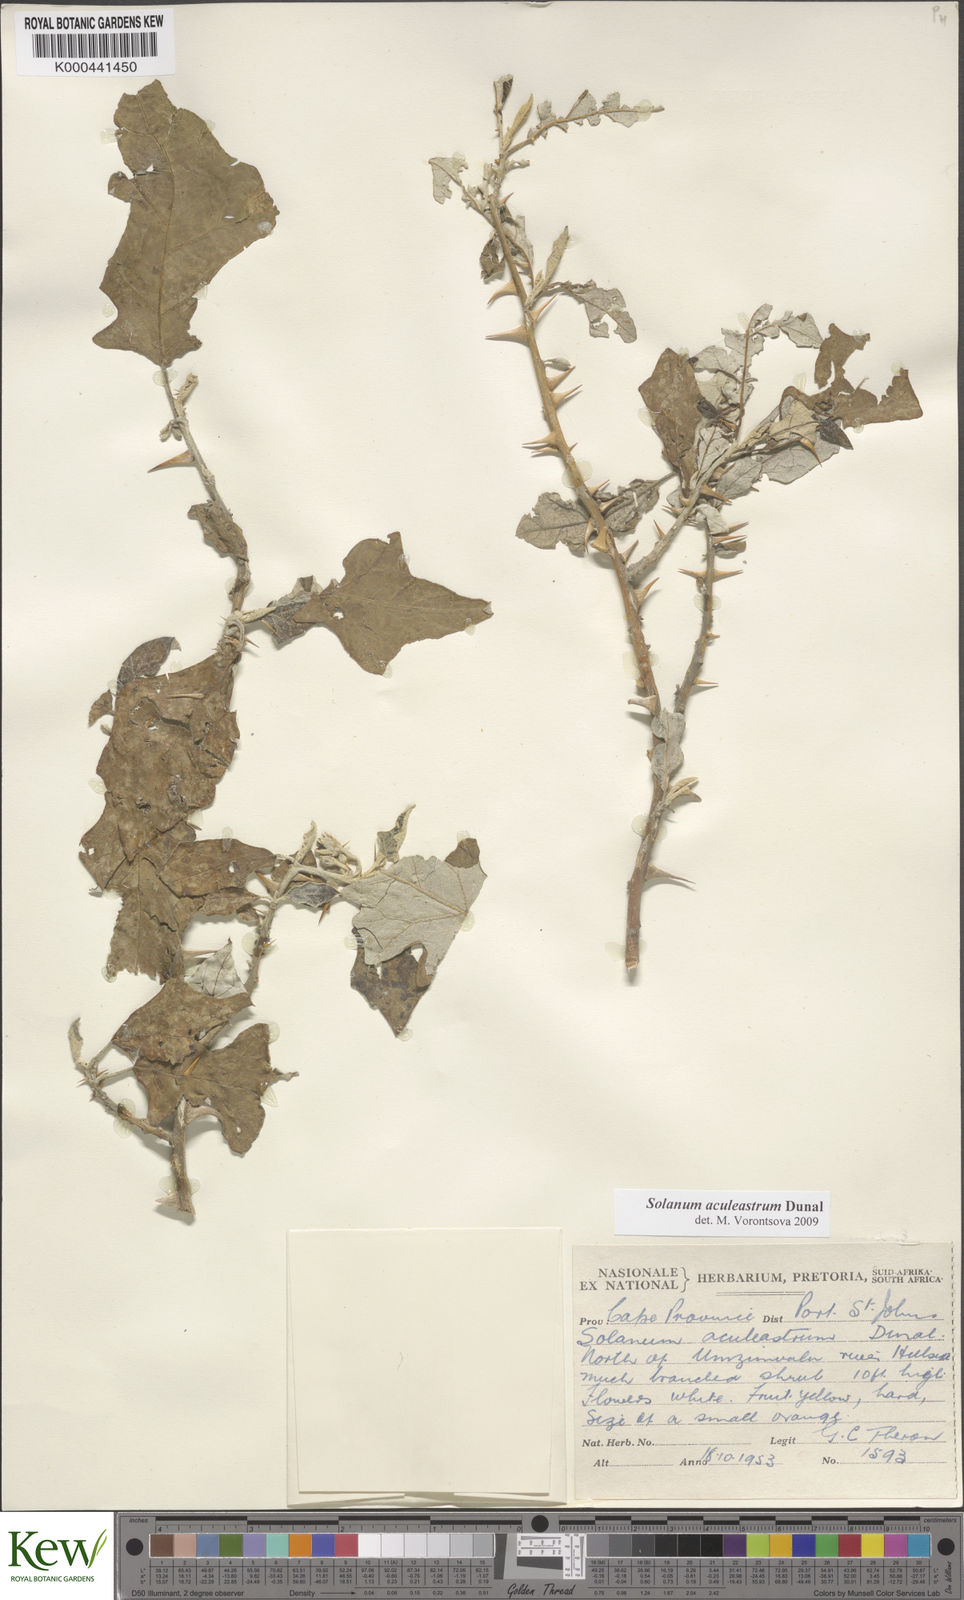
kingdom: Plantae
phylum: Tracheophyta
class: Magnoliopsida
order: Solanales
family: Solanaceae
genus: Solanum
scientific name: Solanum aculeastrum
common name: Goat bitter-apple
